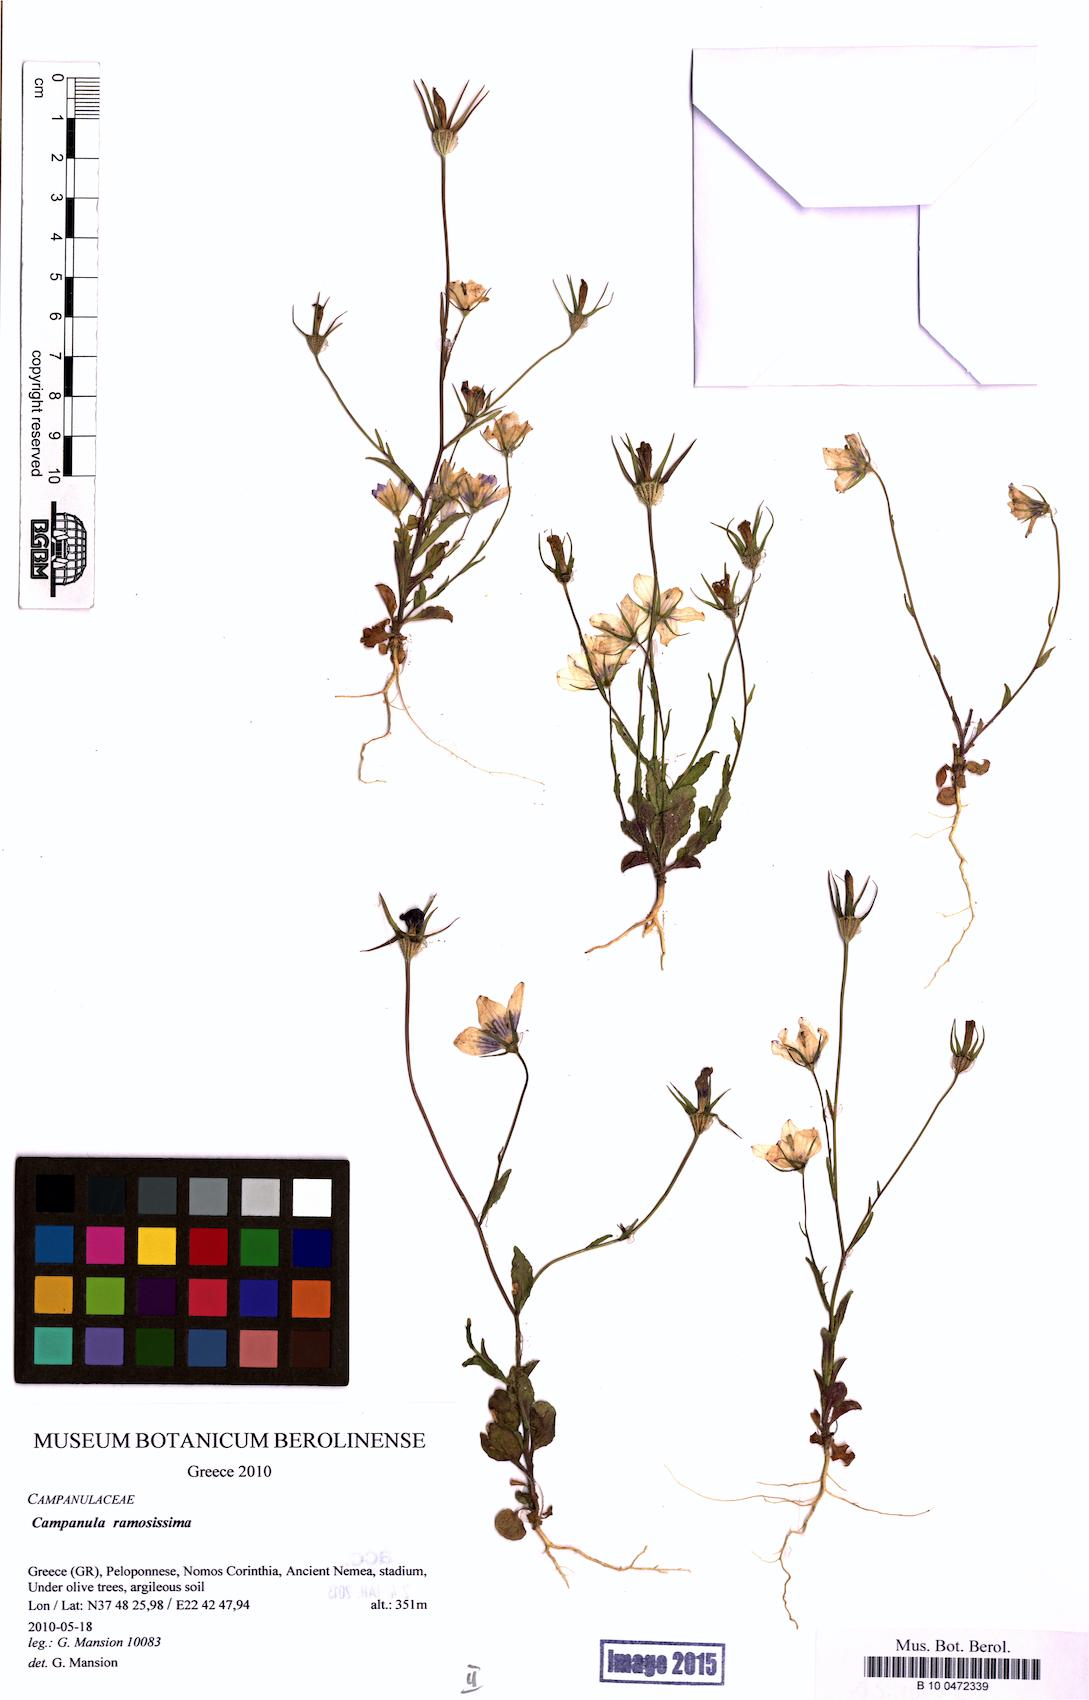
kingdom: Plantae
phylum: Tracheophyta
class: Magnoliopsida
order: Asterales
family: Campanulaceae
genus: Campanula
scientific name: Campanula ramosissima
